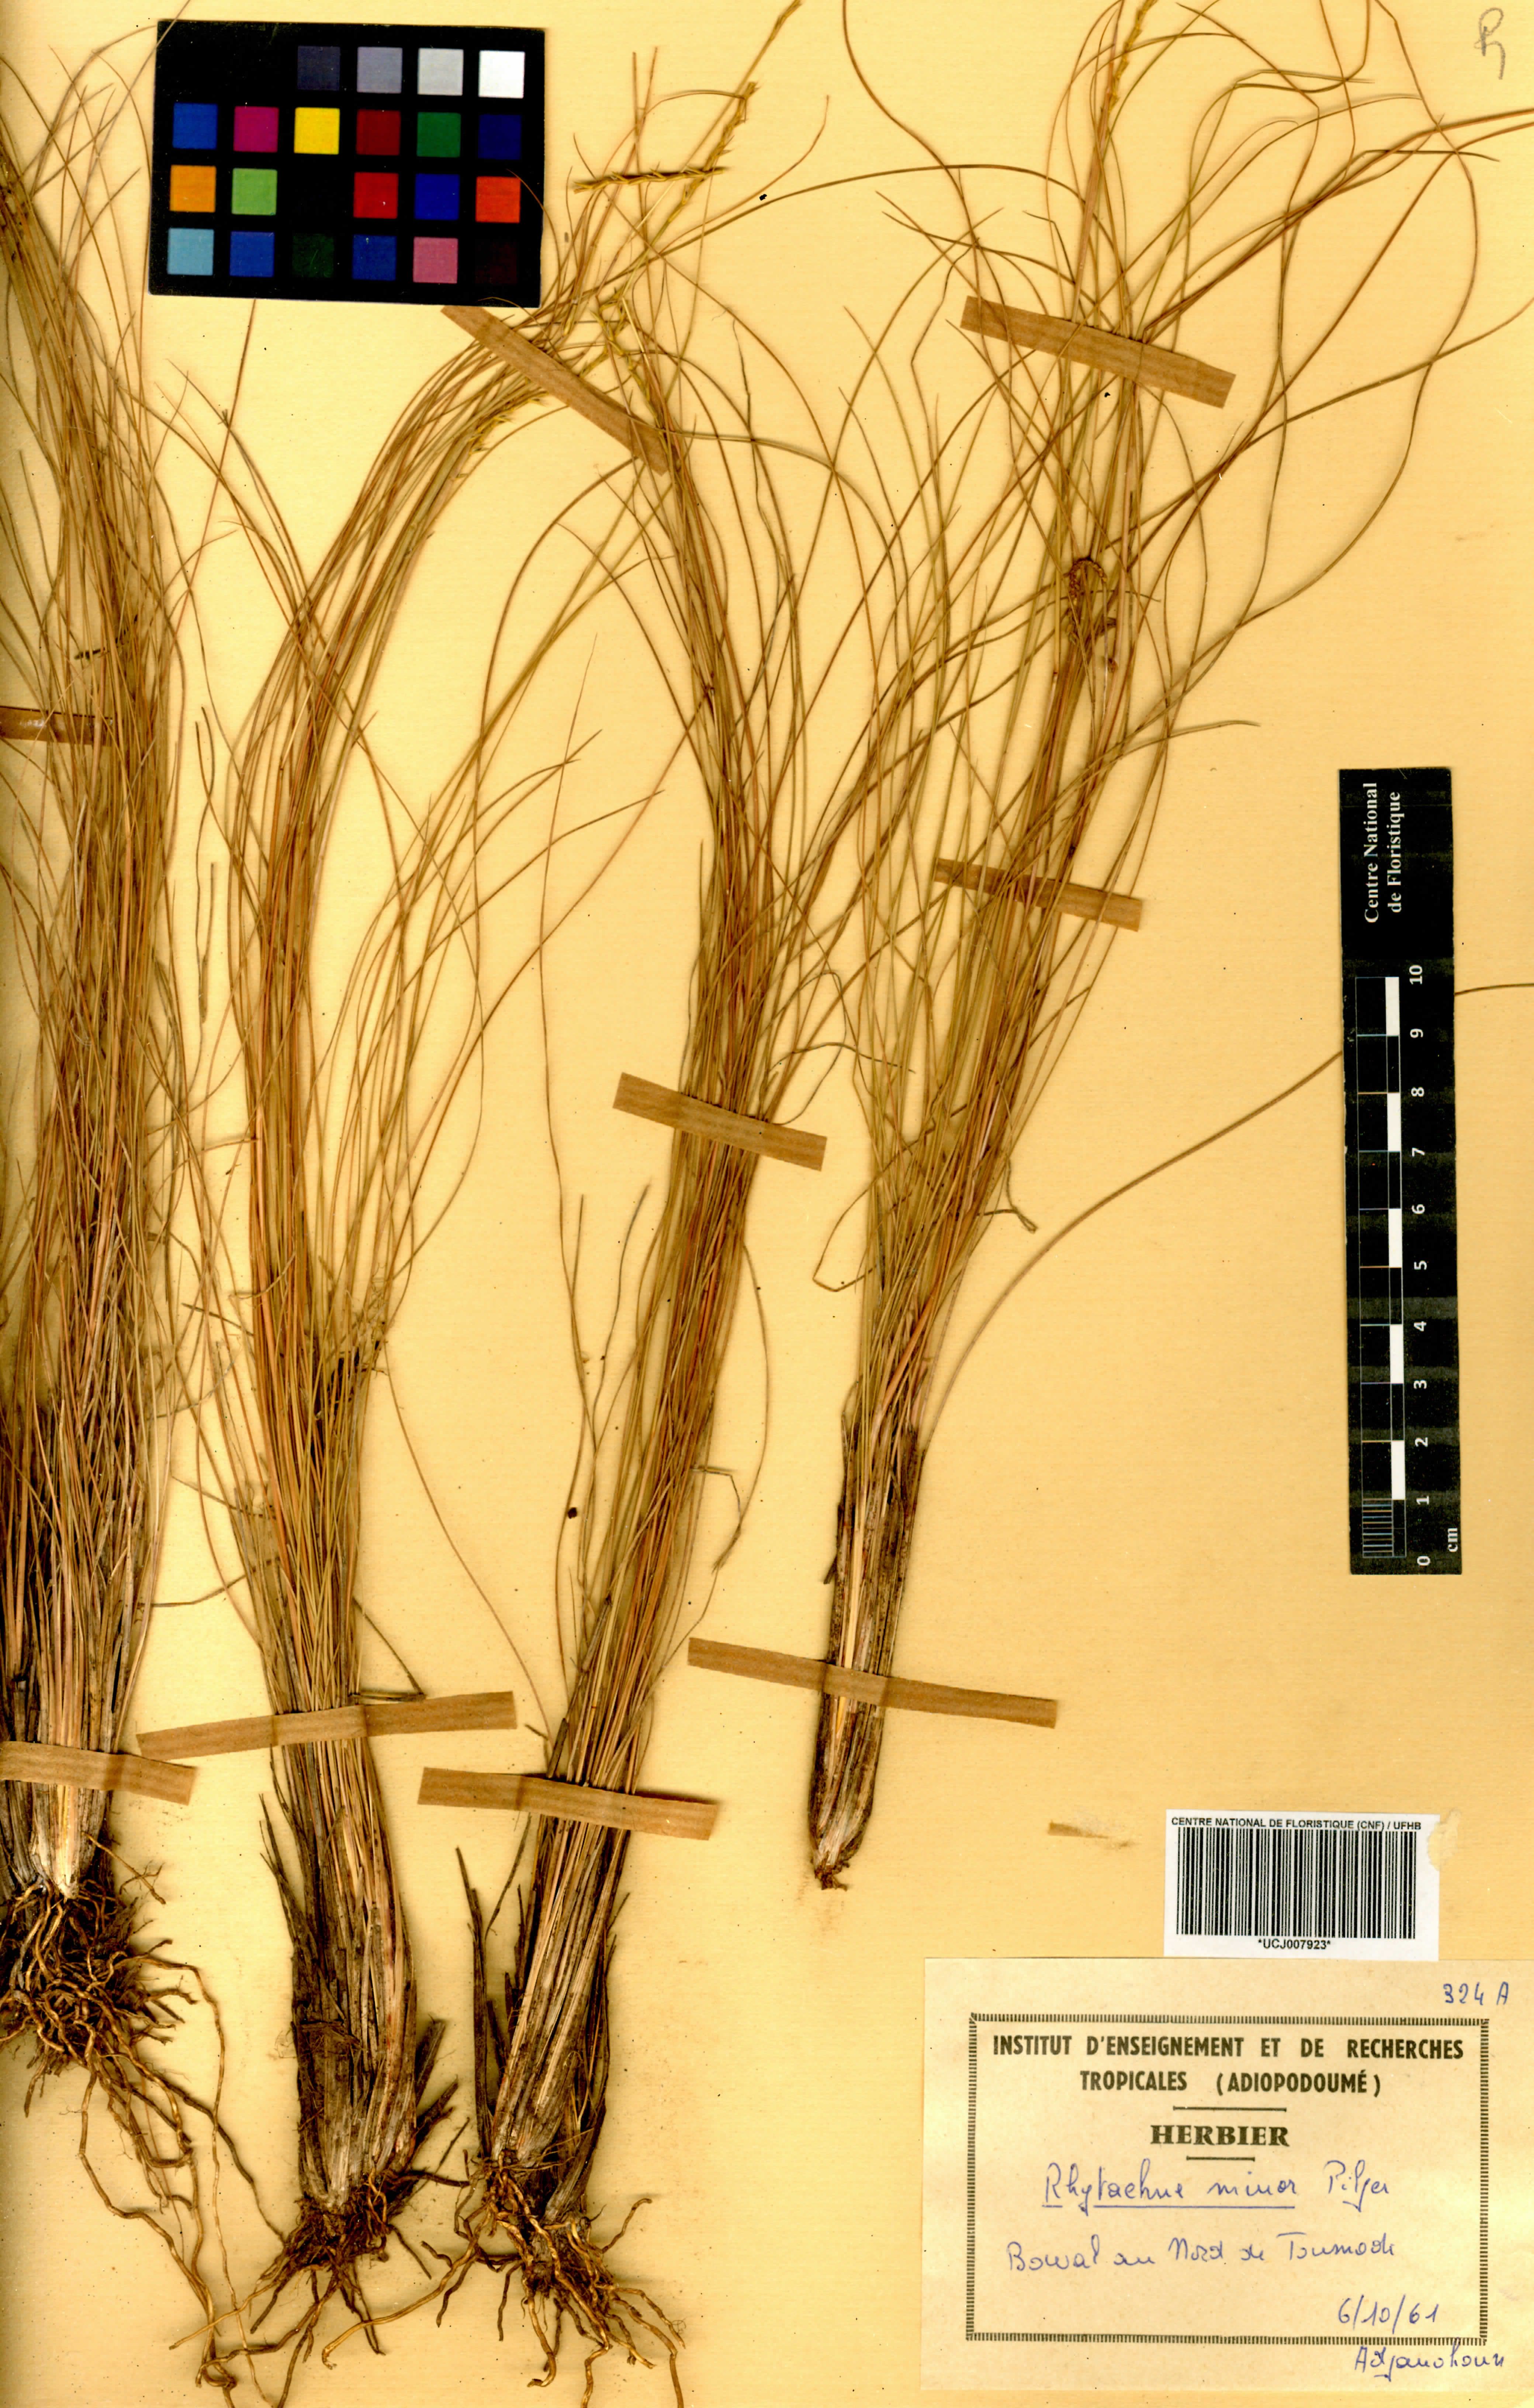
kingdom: Plantae
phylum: Tracheophyta
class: Liliopsida
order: Poales
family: Poaceae
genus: Rhytachne
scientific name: Rhytachne gracilis
